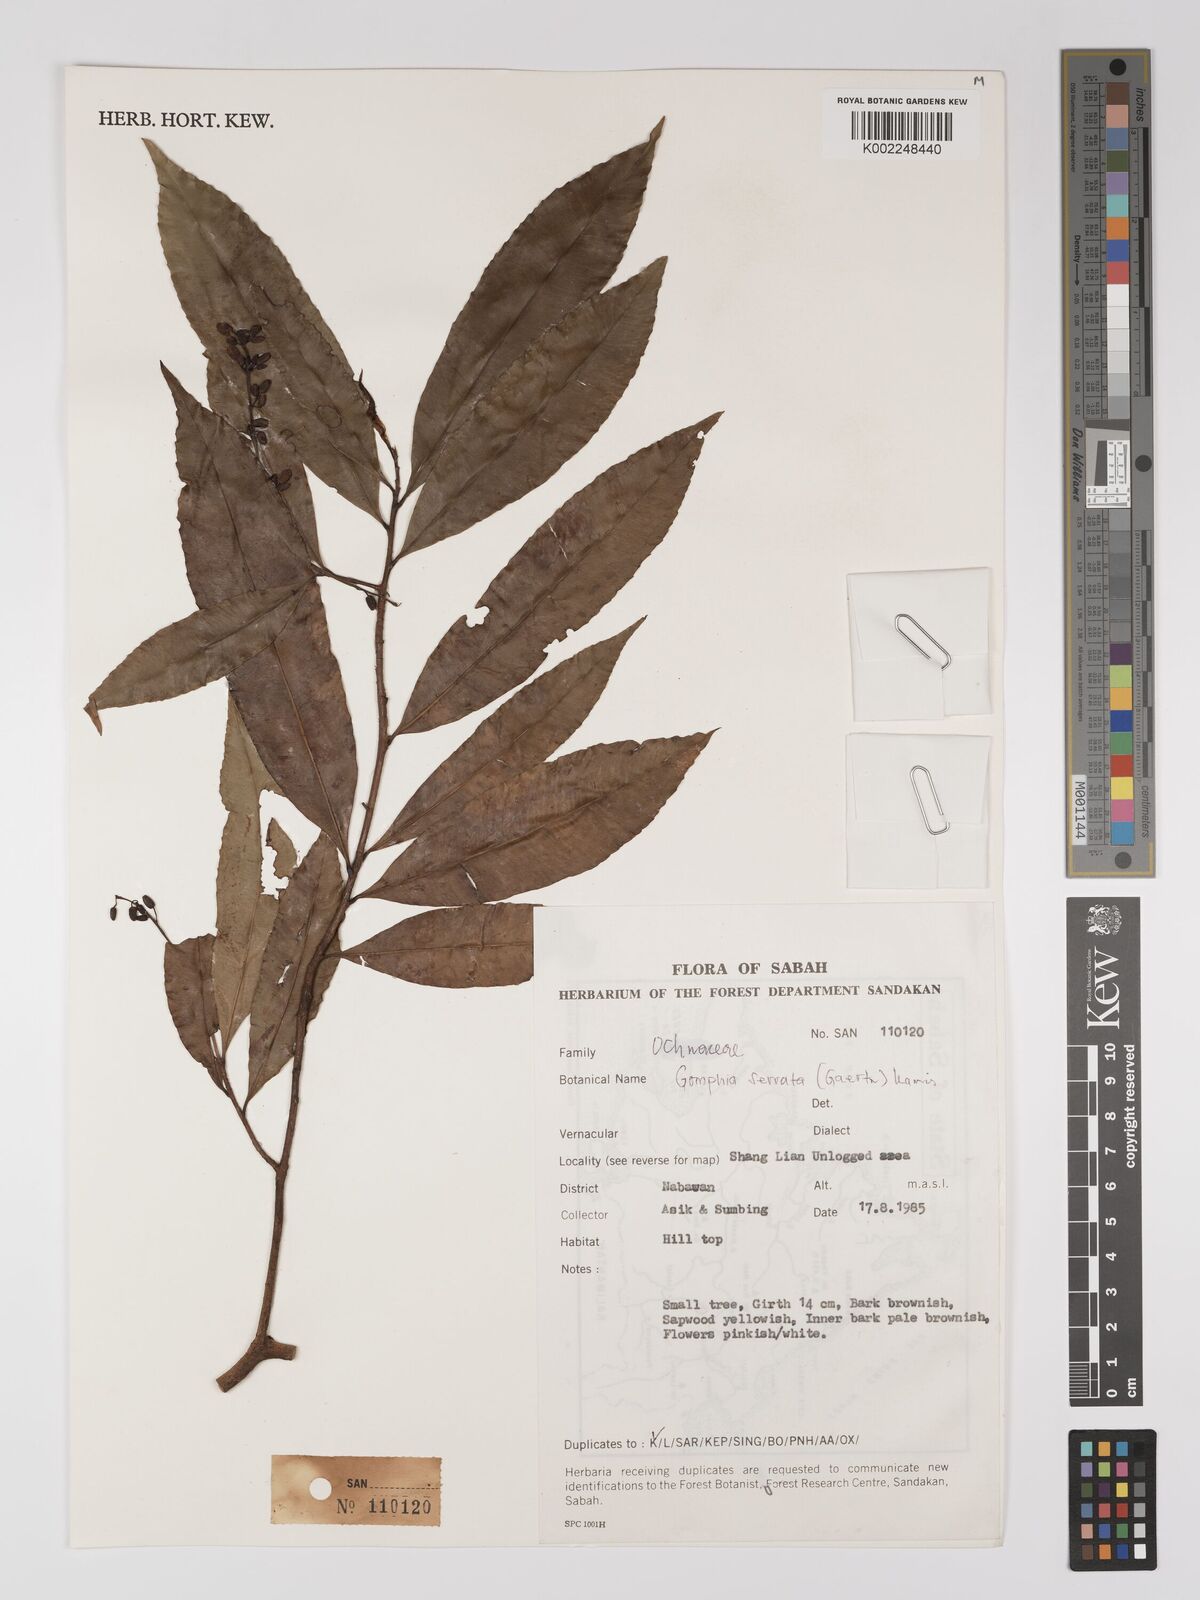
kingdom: Plantae
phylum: Tracheophyta
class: Magnoliopsida
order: Malpighiales
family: Ochnaceae
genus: Gomphia
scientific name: Gomphia serrata
